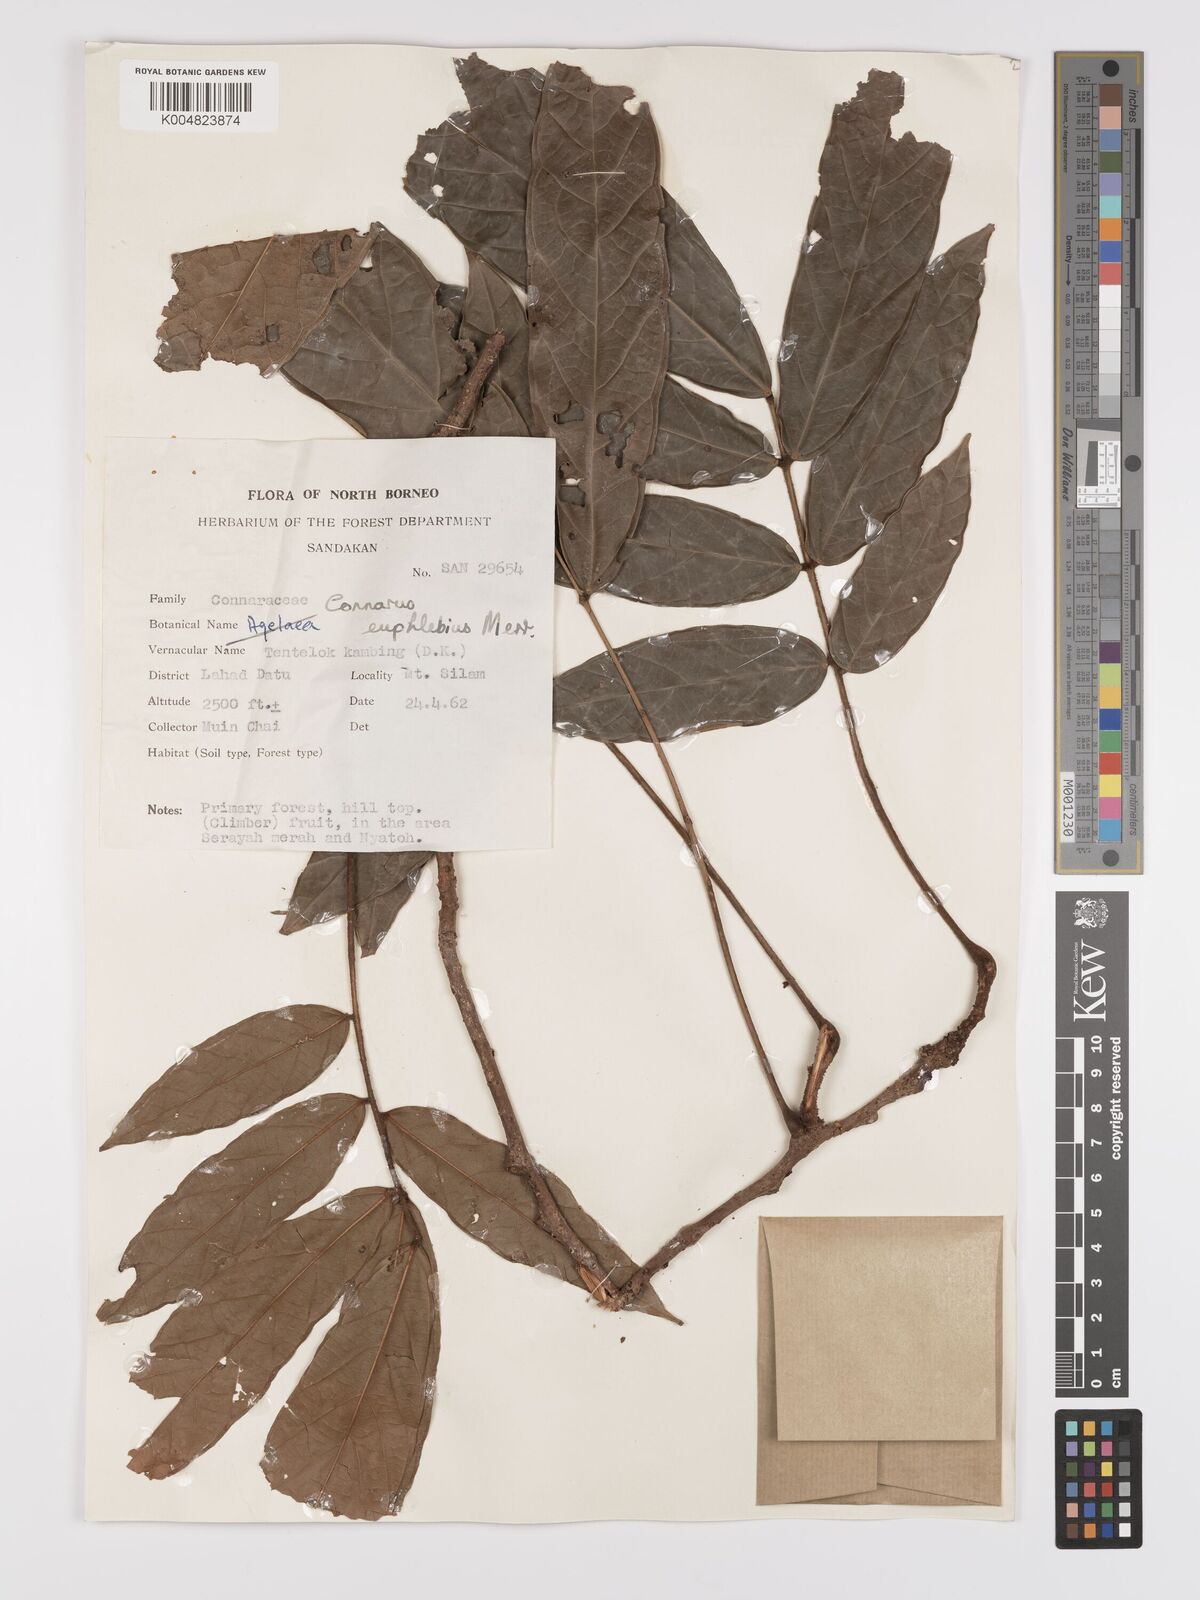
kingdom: Plantae
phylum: Tracheophyta
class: Magnoliopsida
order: Oxalidales
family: Connaraceae
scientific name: Connaraceae
